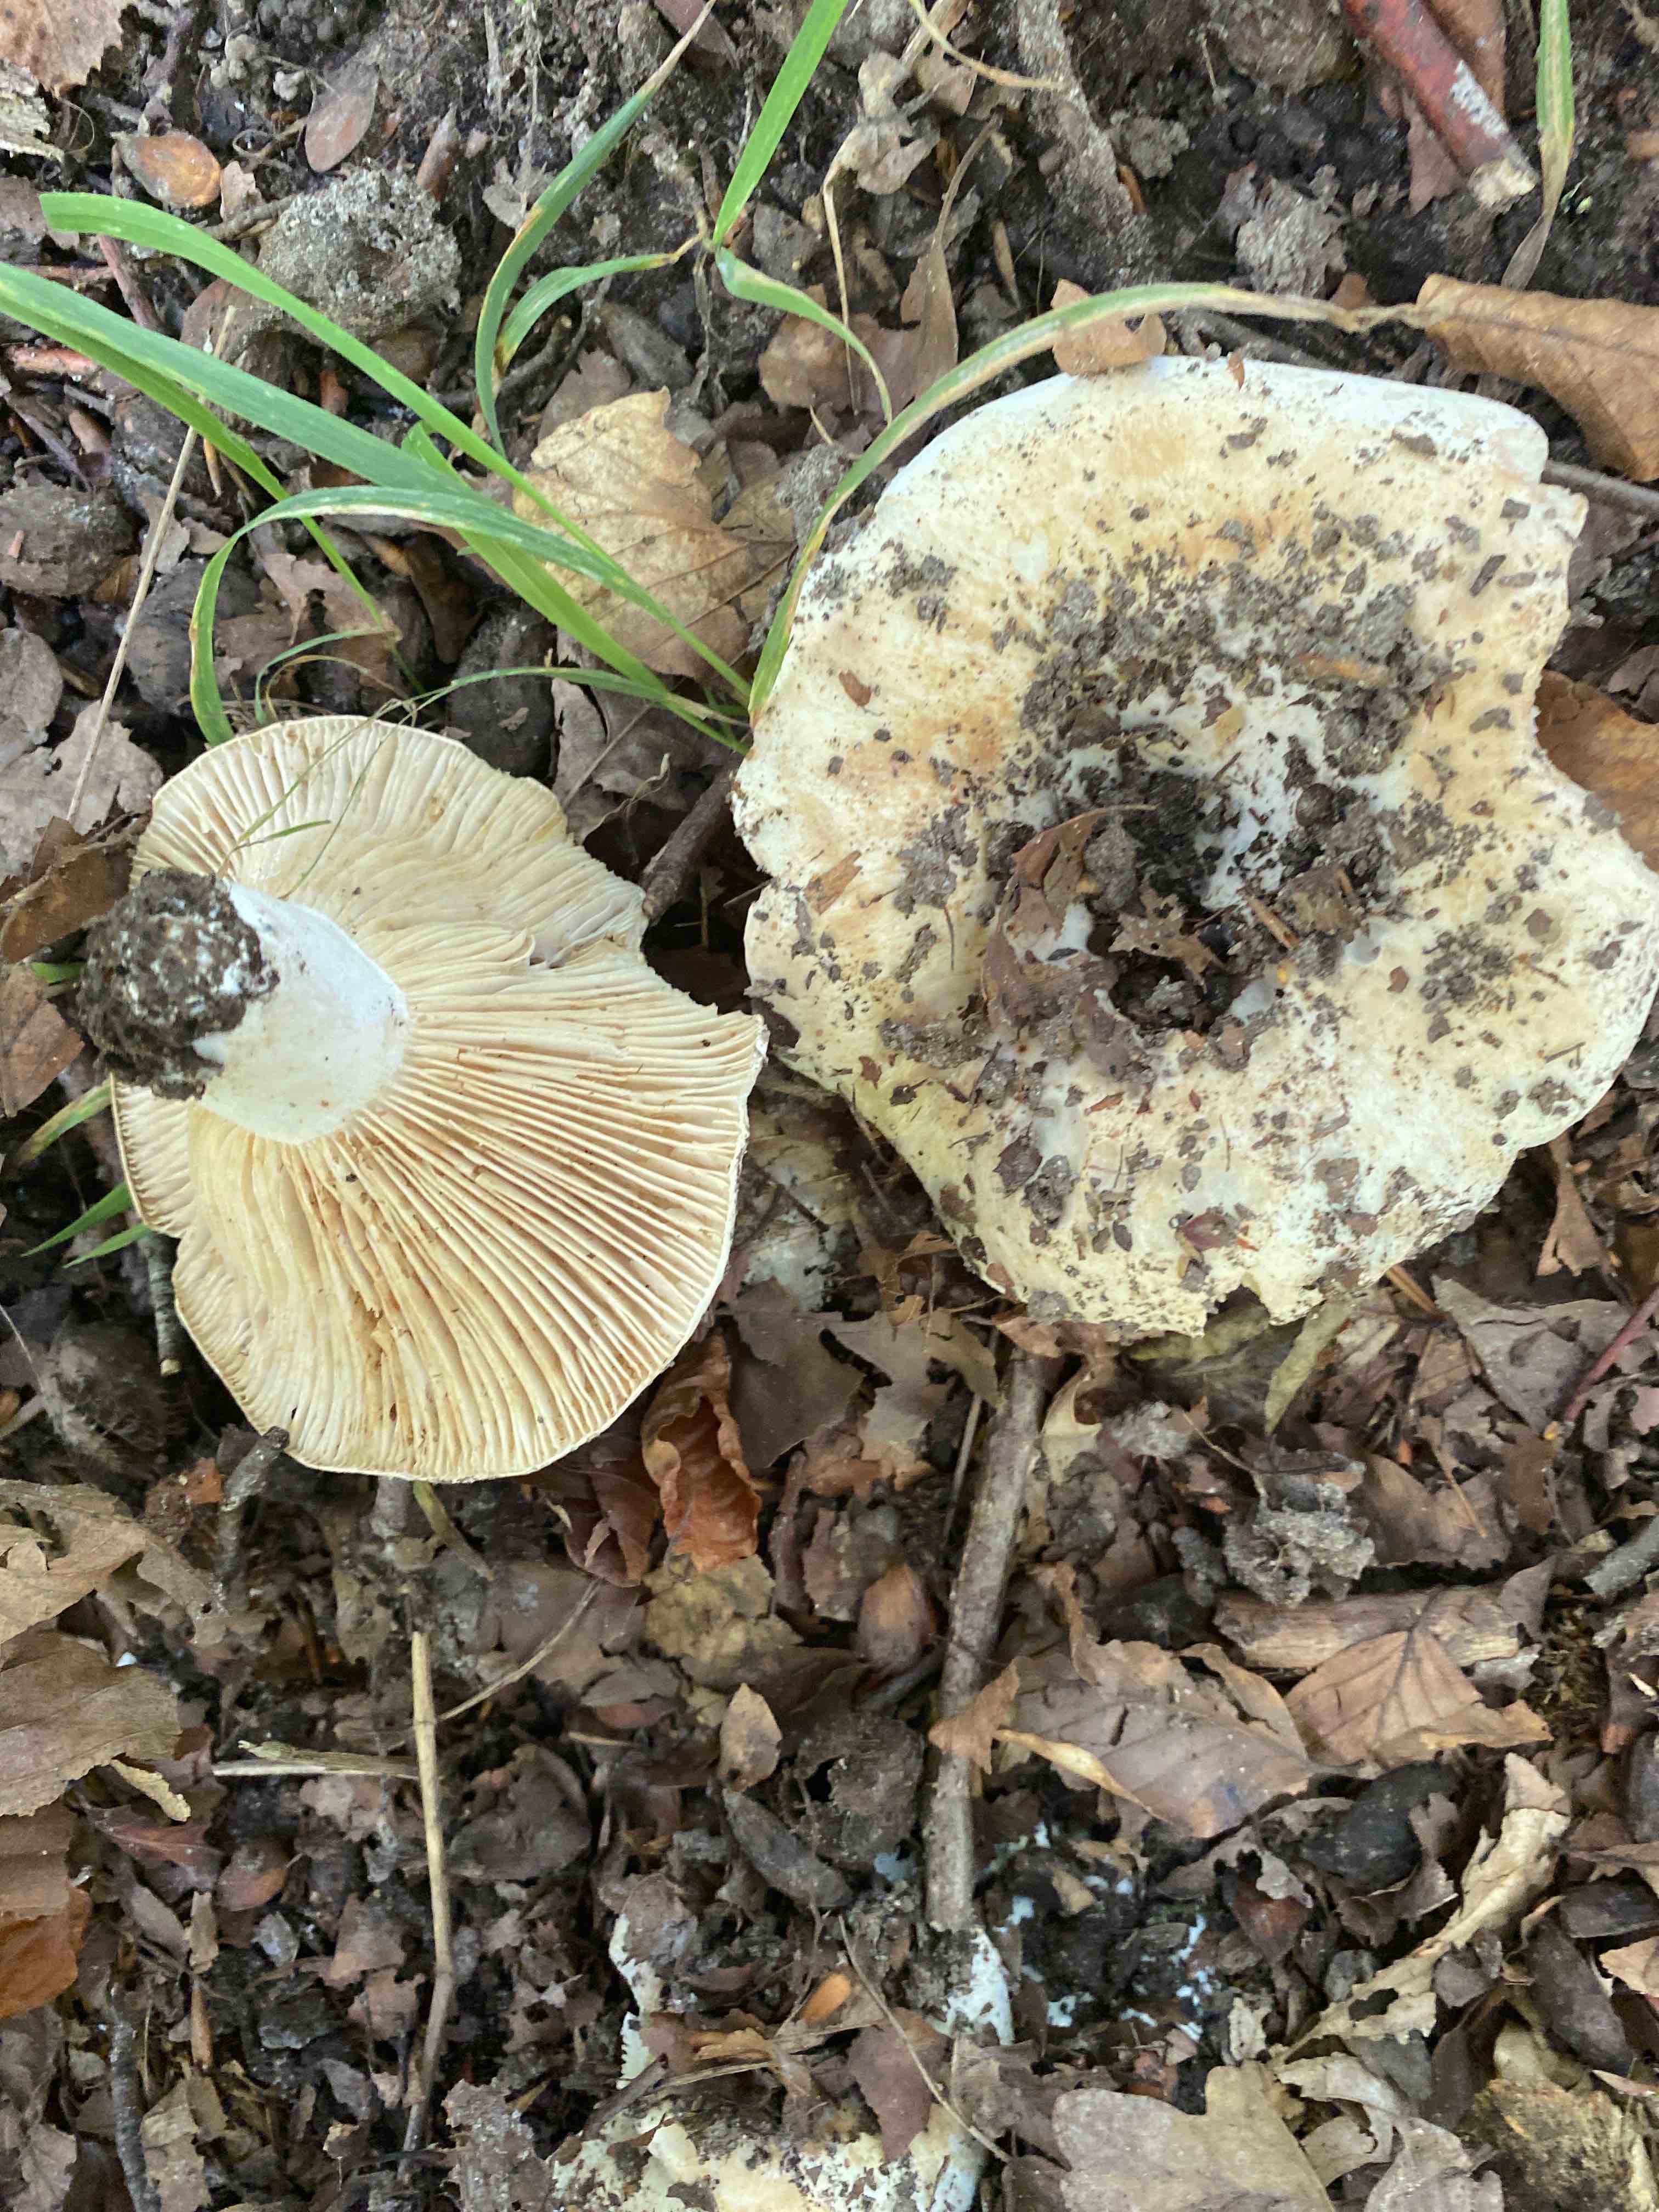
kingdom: Fungi
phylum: Basidiomycota
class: Agaricomycetes
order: Russulales
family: Russulaceae
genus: Russula
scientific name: Russula delica
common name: almindelig tragt-skørhat
